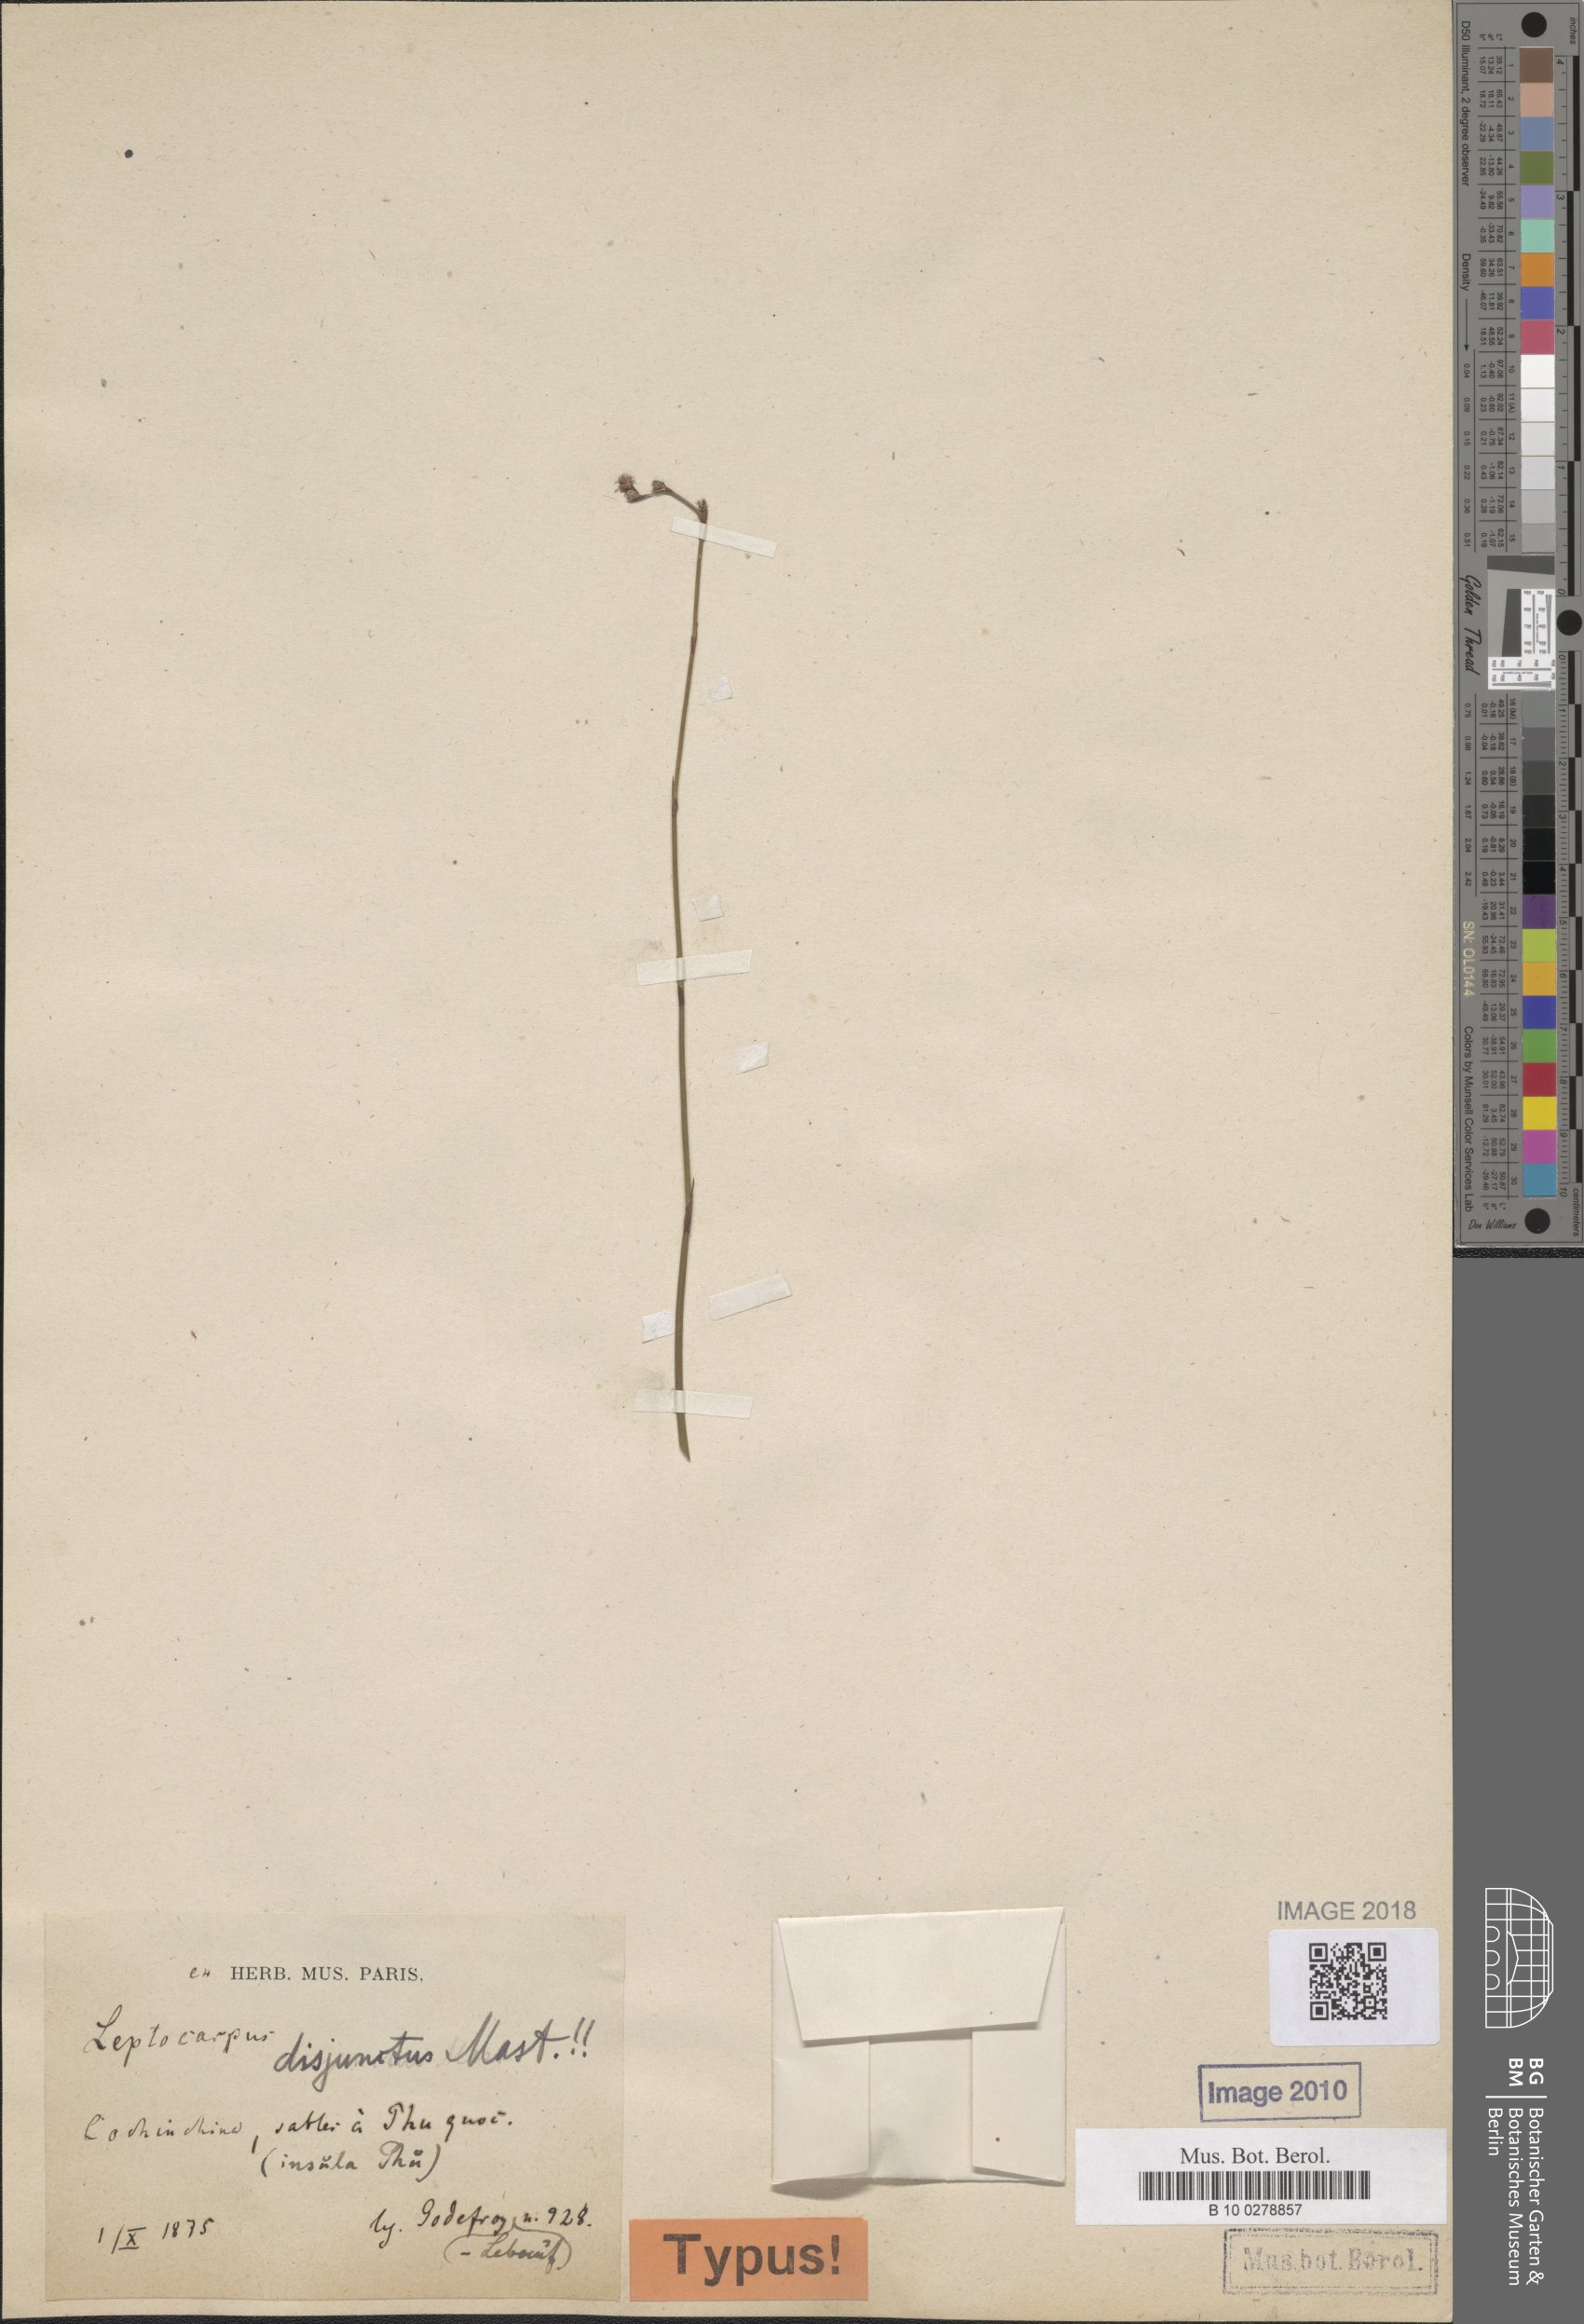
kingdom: Plantae
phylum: Tracheophyta
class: Liliopsida
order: Poales
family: Restionaceae
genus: Dapsilanthus
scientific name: Dapsilanthus disjunctus
